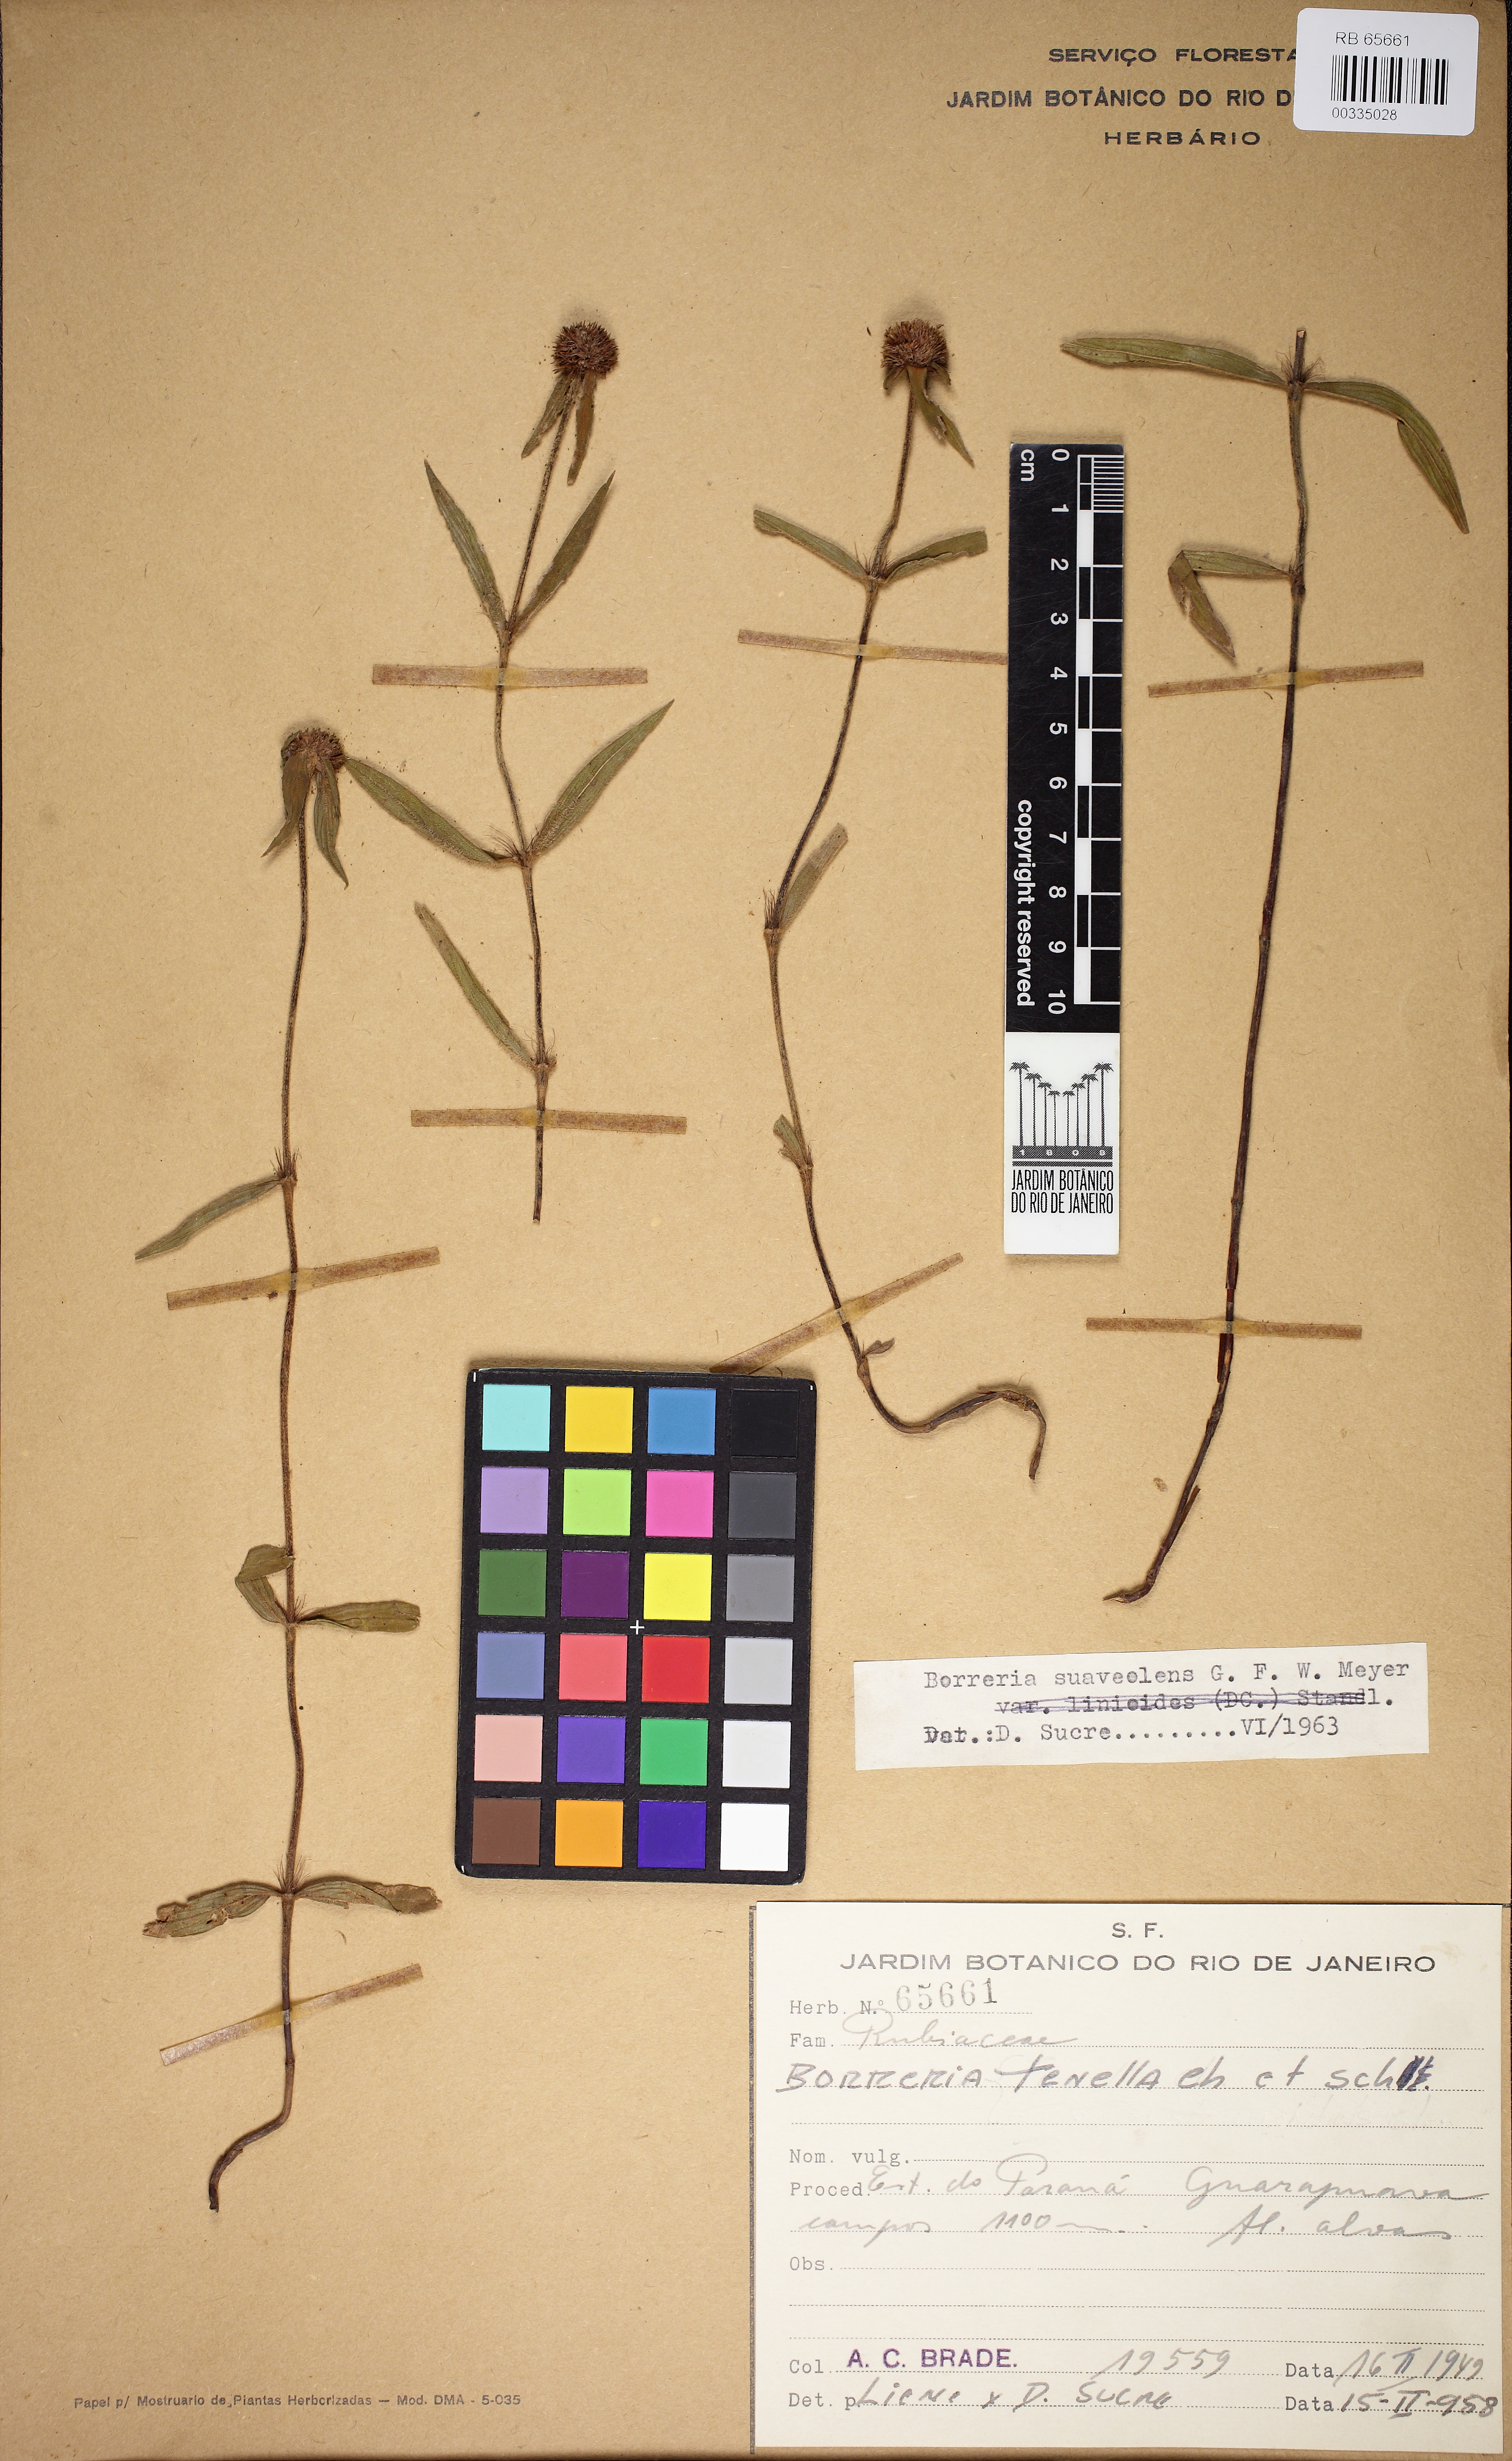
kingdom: Plantae
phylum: Tracheophyta
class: Magnoliopsida
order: Gentianales
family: Rubiaceae
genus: Spermacoce
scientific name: Spermacoce orinocensis
